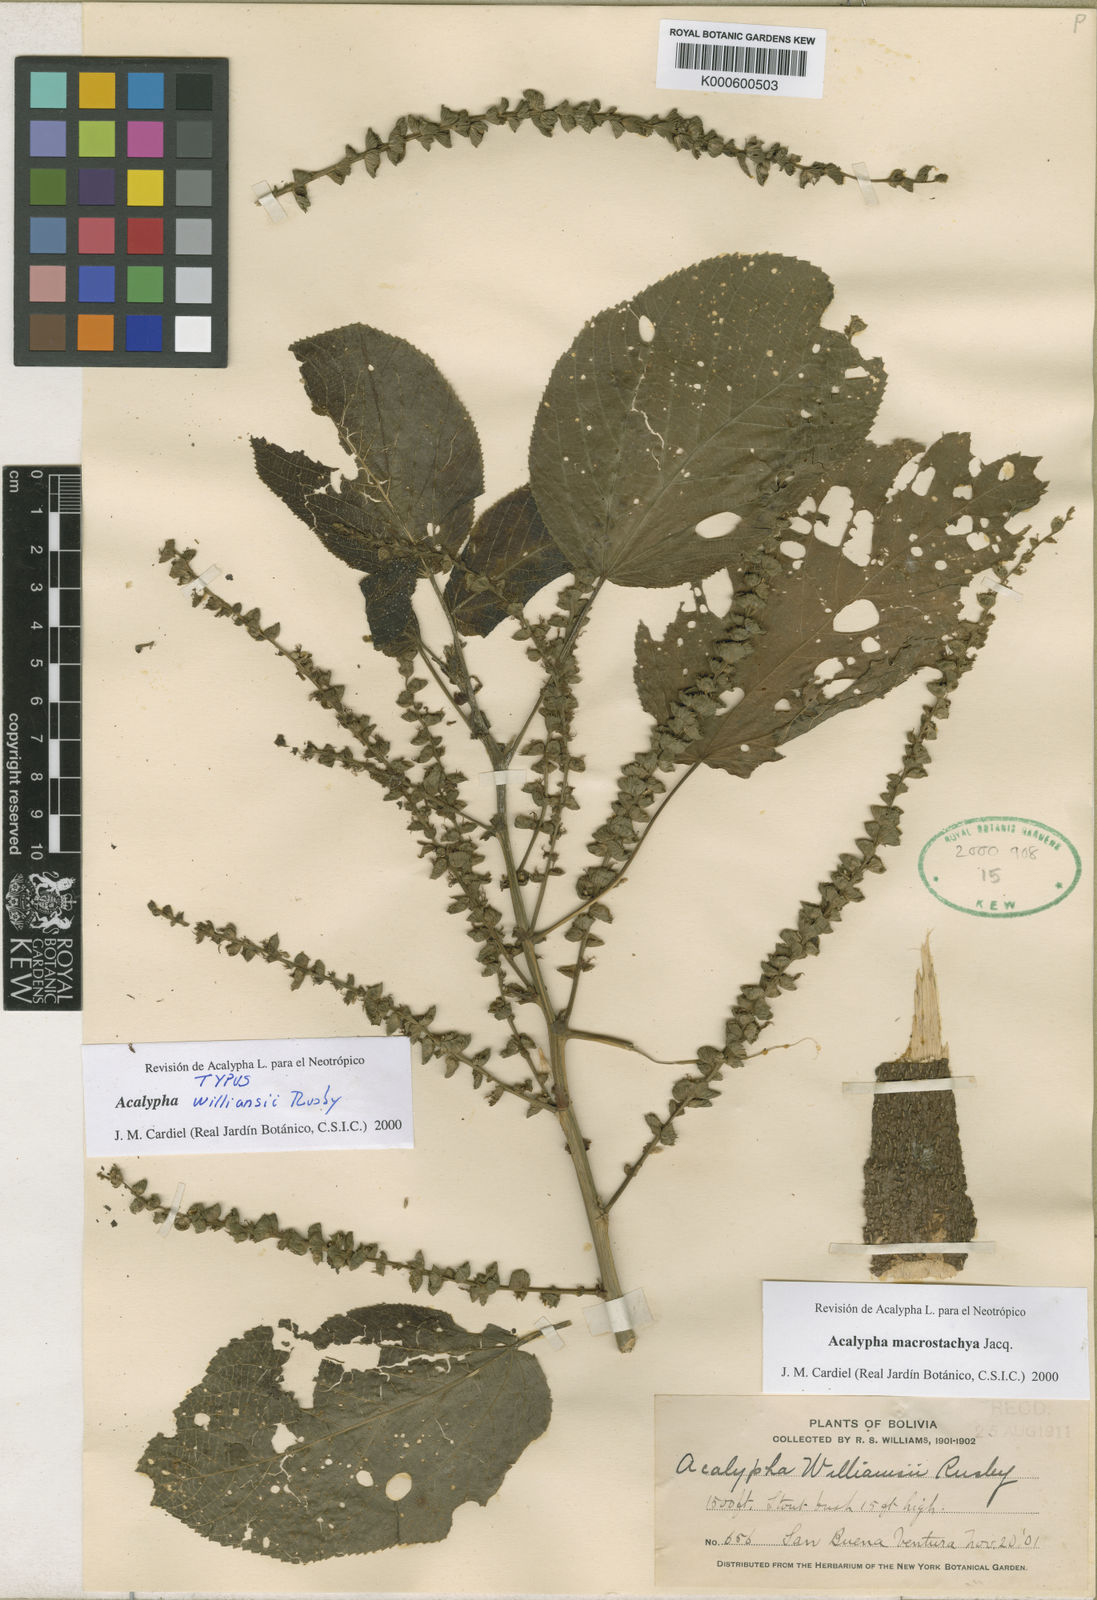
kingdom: Plantae
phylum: Tracheophyta
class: Magnoliopsida
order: Malpighiales
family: Euphorbiaceae
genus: Acalypha
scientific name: Acalypha macrostachya
